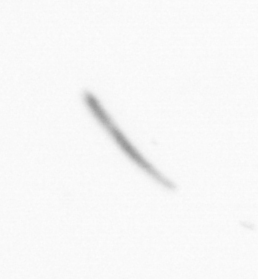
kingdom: Chromista
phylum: Ochrophyta
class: Bacillariophyceae
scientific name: Bacillariophyceae
